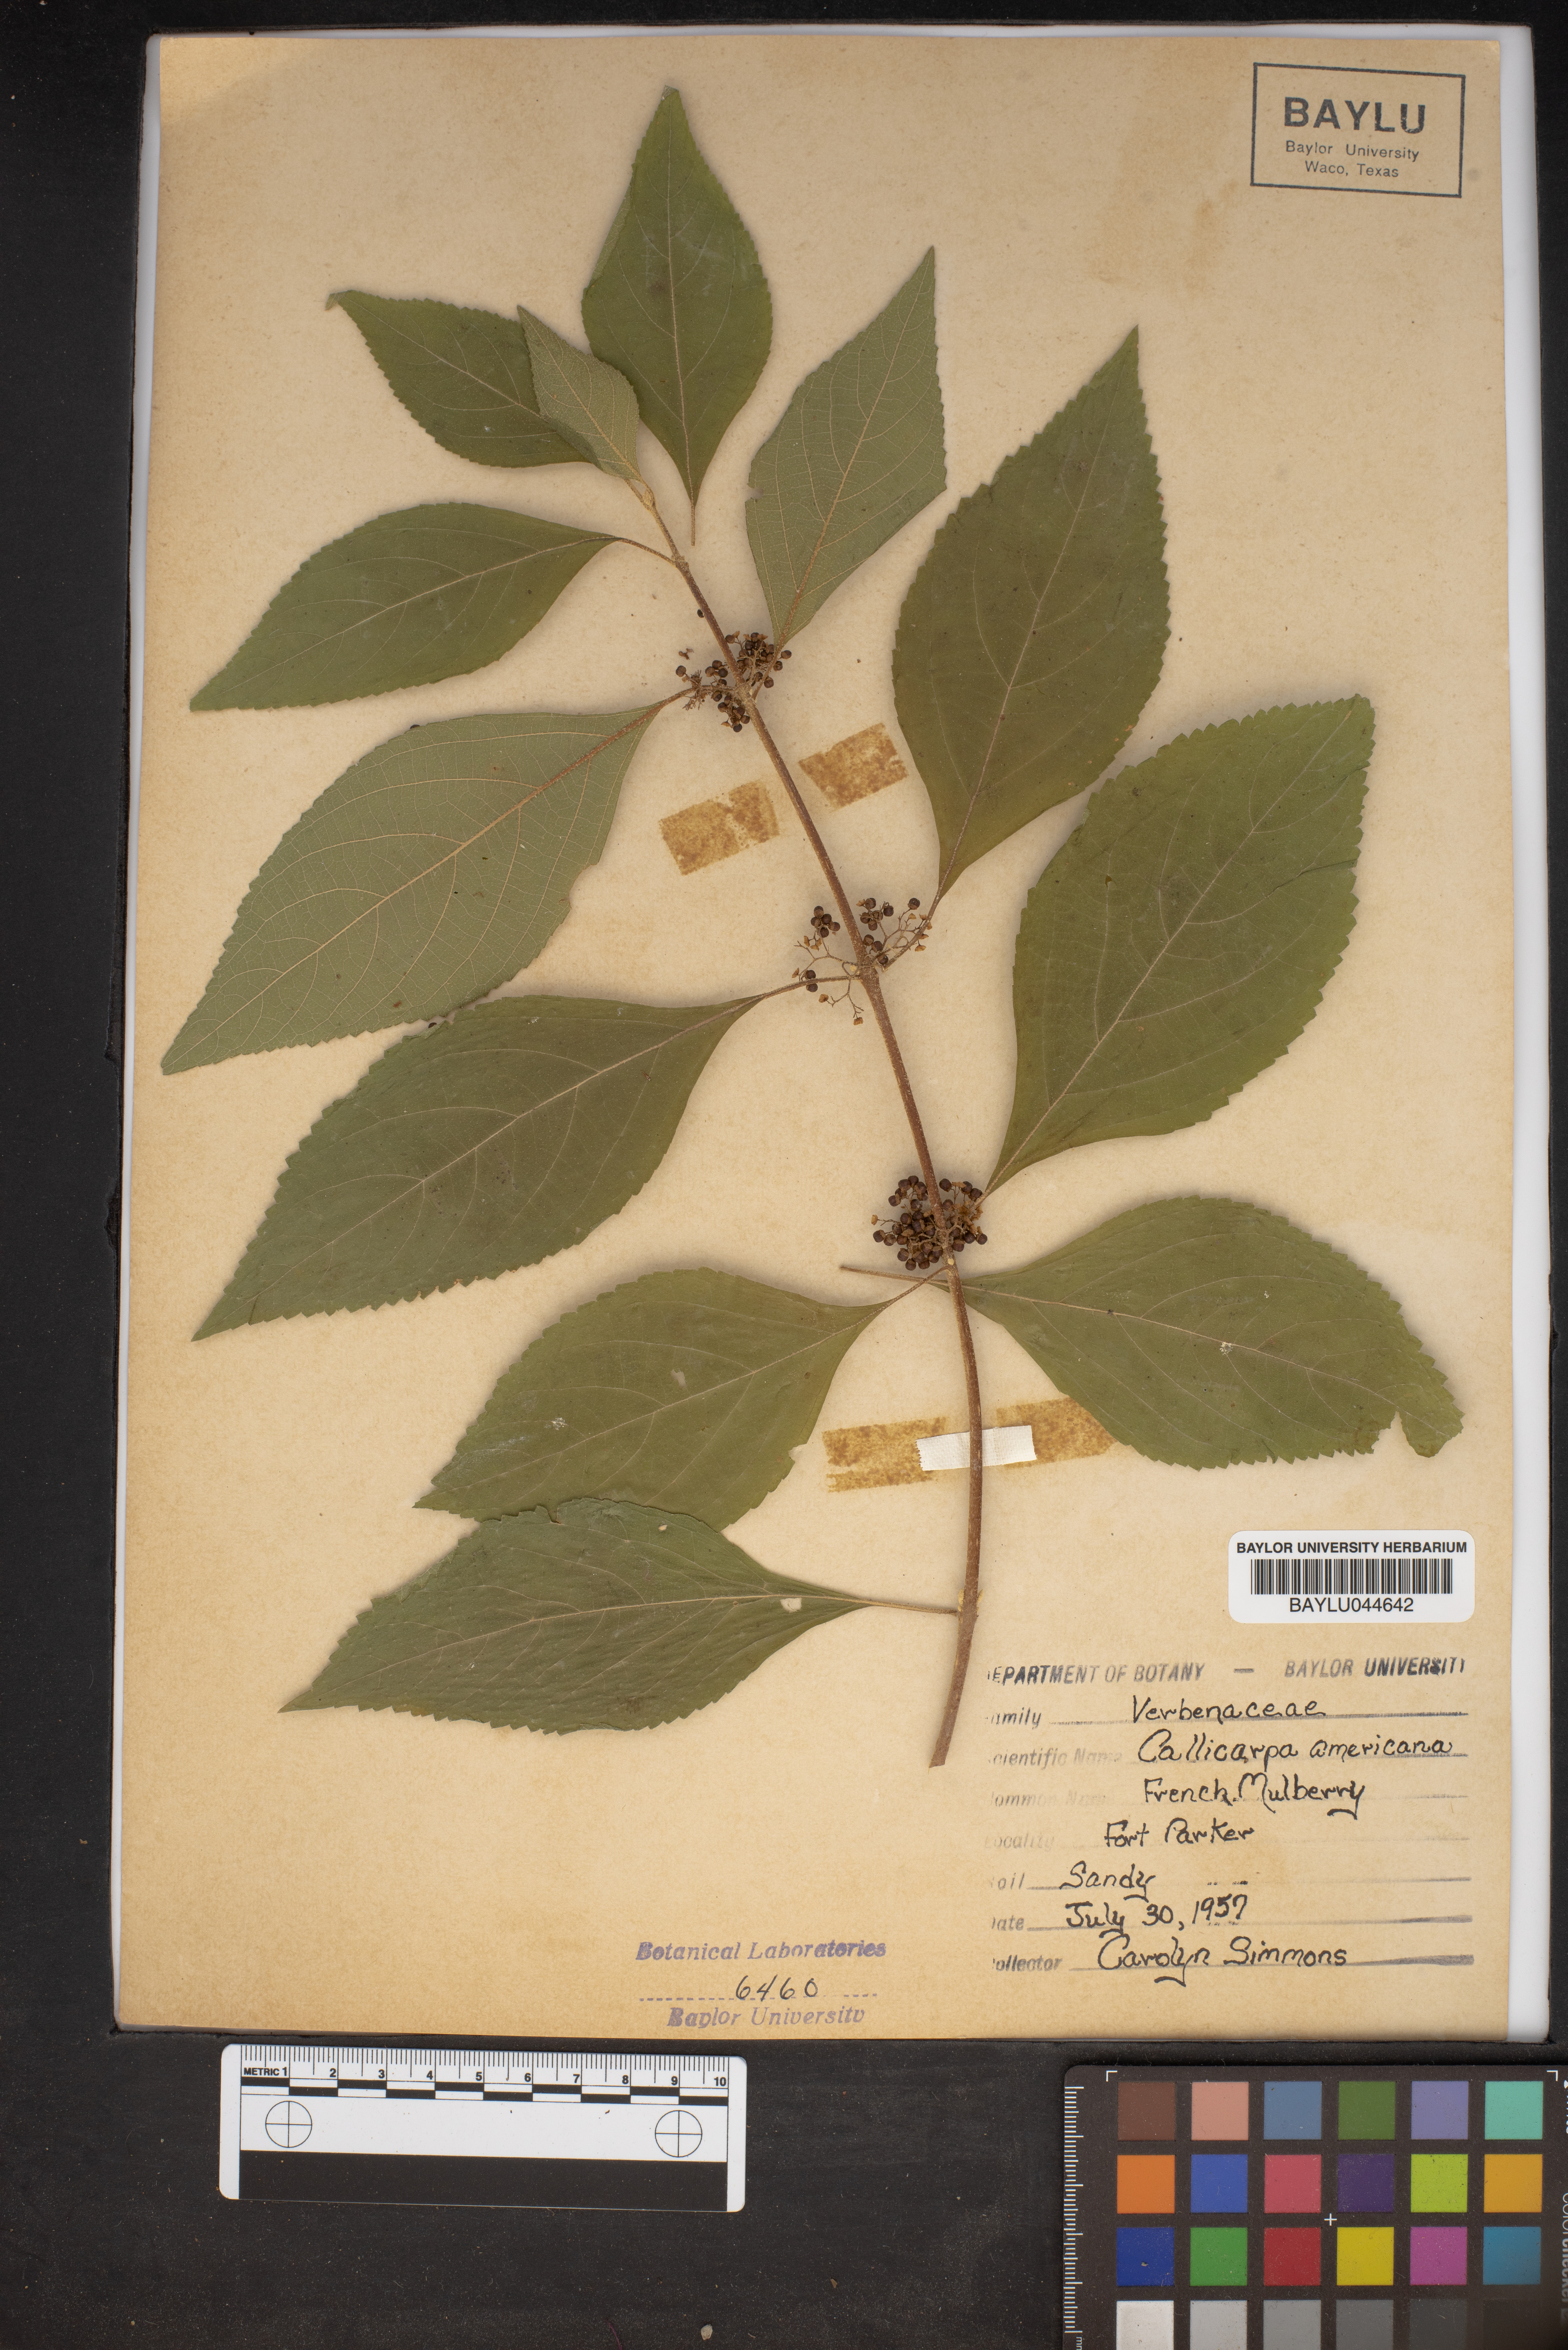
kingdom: Plantae
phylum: Tracheophyta
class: Magnoliopsida
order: Lamiales
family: Lamiaceae
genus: Callicarpa
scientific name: Callicarpa americana
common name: American beautyberry
